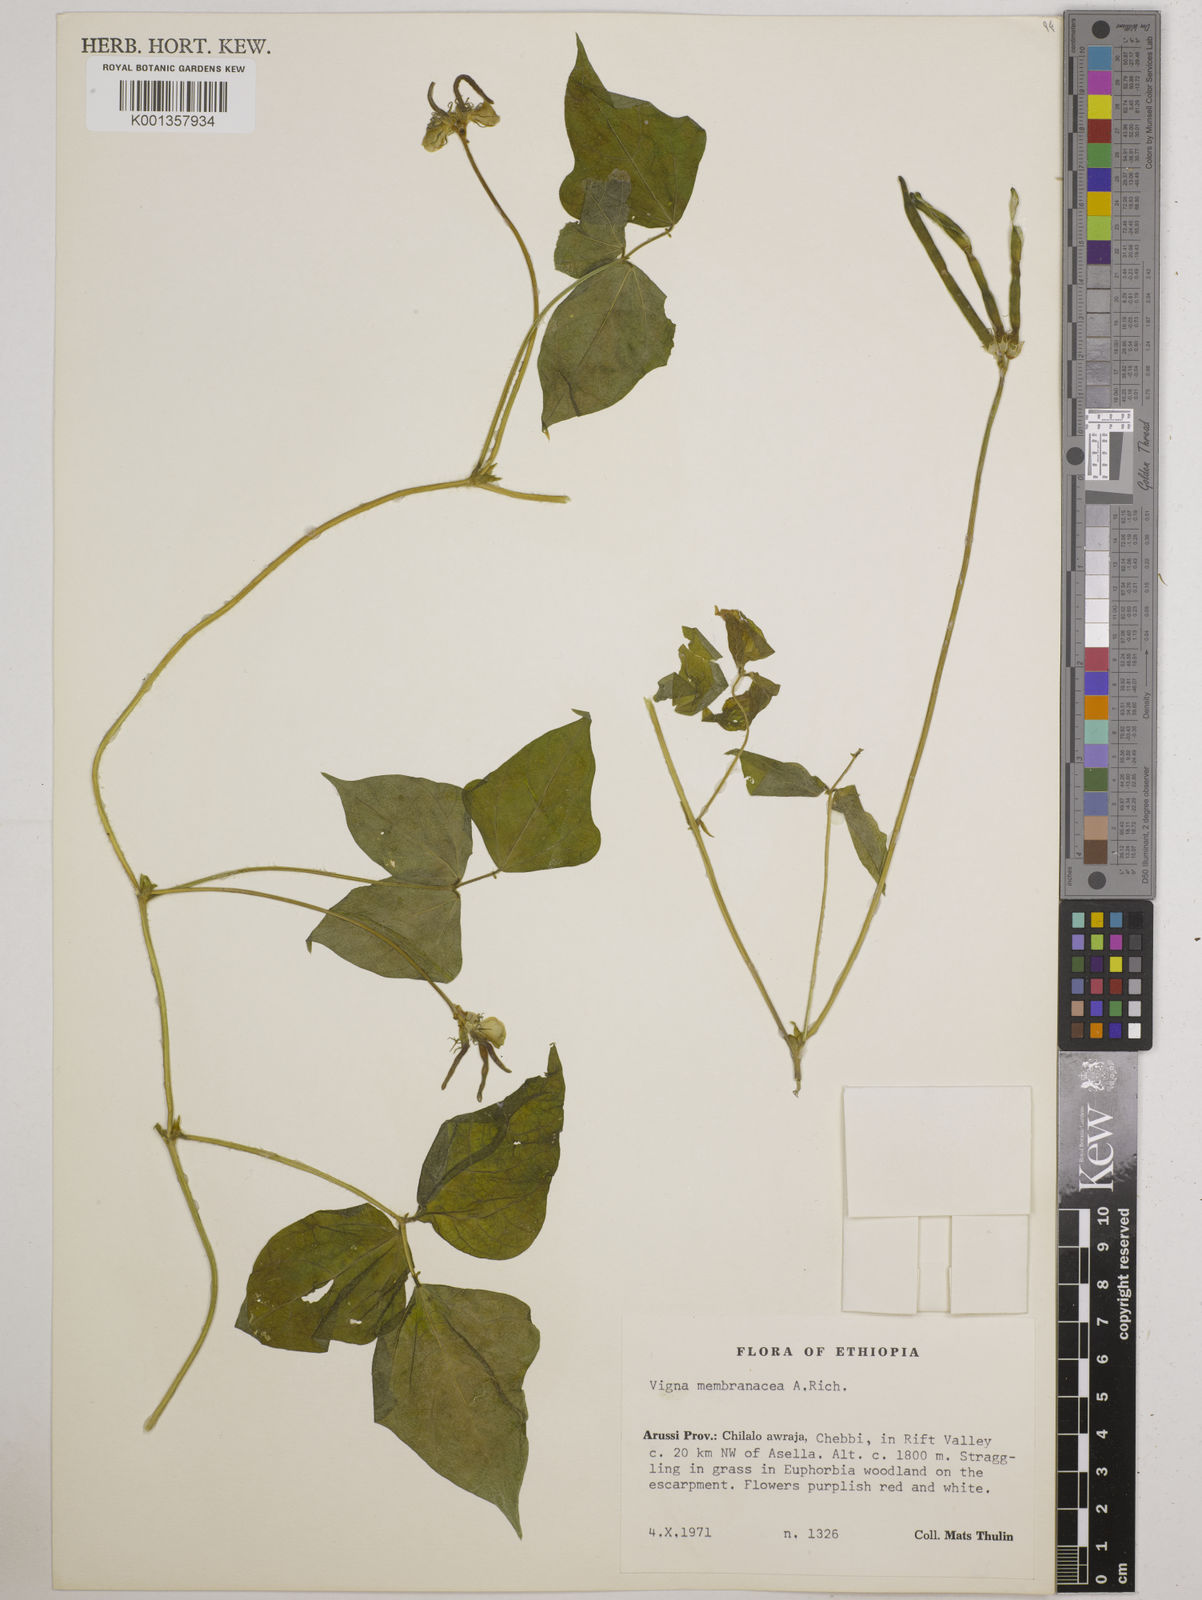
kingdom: Plantae
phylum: Tracheophyta
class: Magnoliopsida
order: Fabales
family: Fabaceae
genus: Vigna
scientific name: Vigna membranacea
